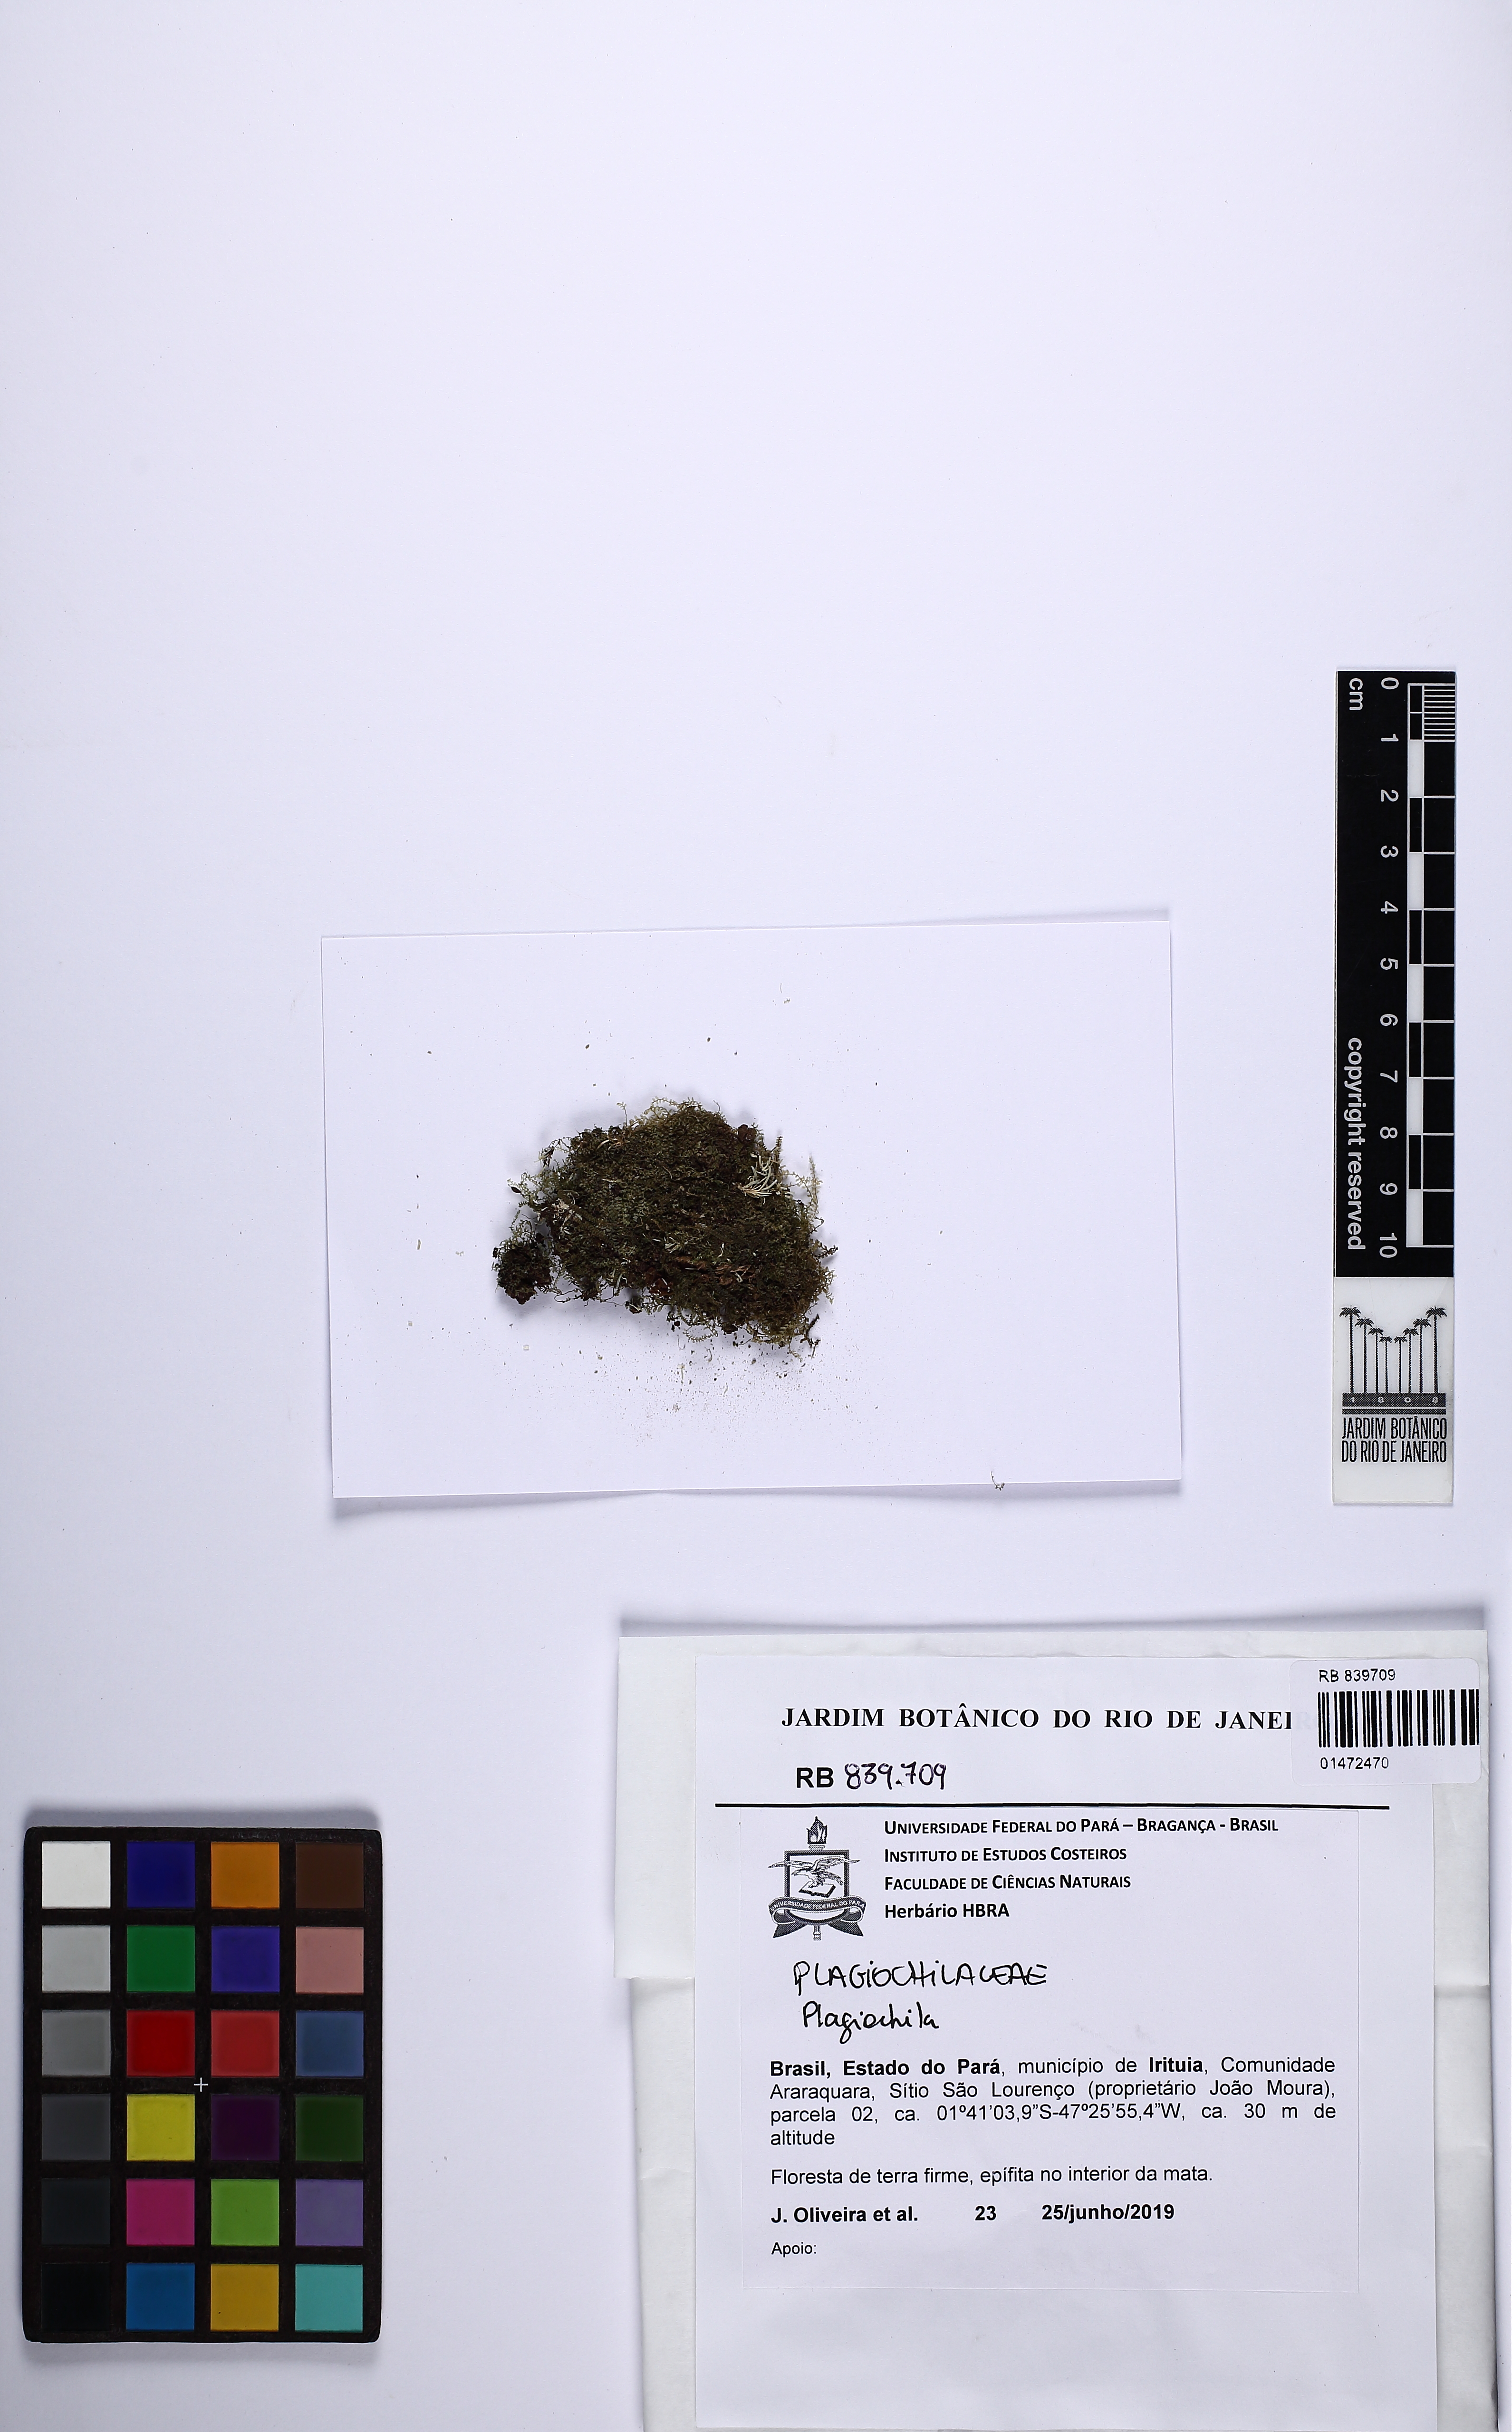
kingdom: Plantae
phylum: Marchantiophyta
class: Jungermanniopsida
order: Jungermanniales
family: Plagiochilaceae
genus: Plagiochila
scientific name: Plagiochila
